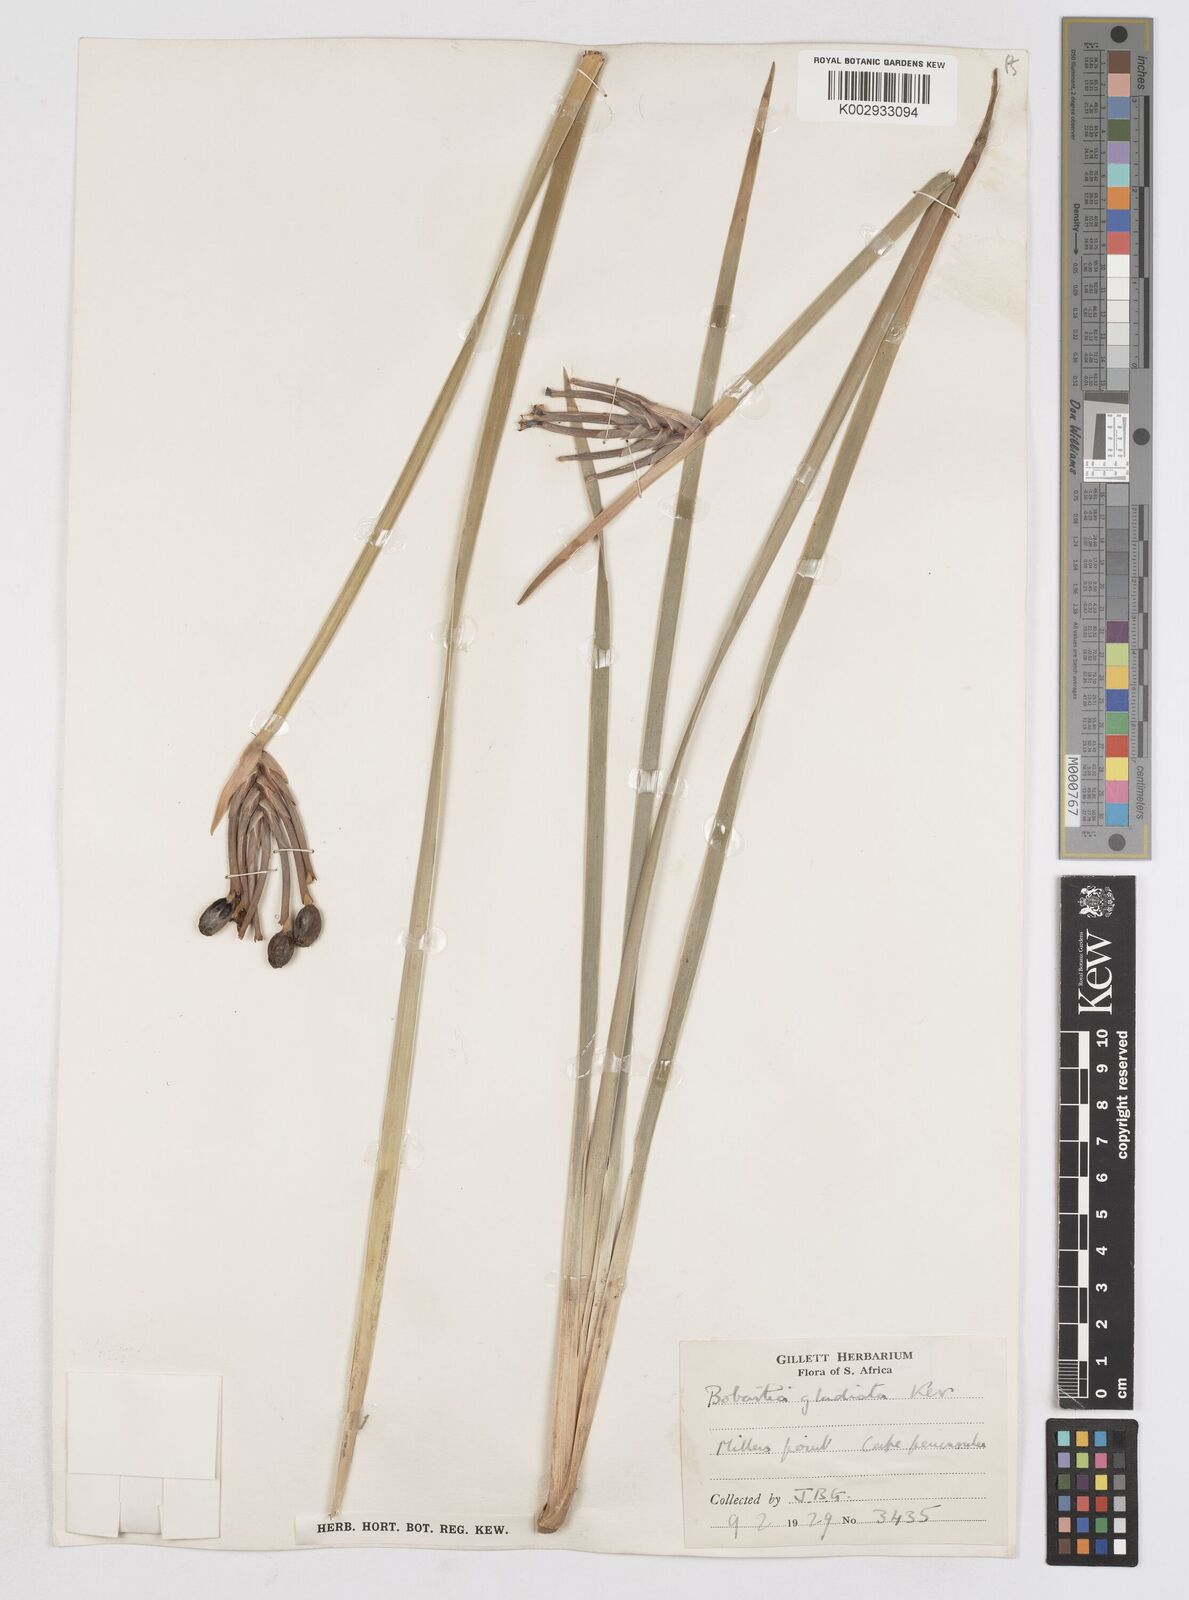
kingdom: Plantae
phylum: Tracheophyta
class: Liliopsida
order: Asparagales
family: Iridaceae
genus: Bobartia
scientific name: Bobartia gladiata
